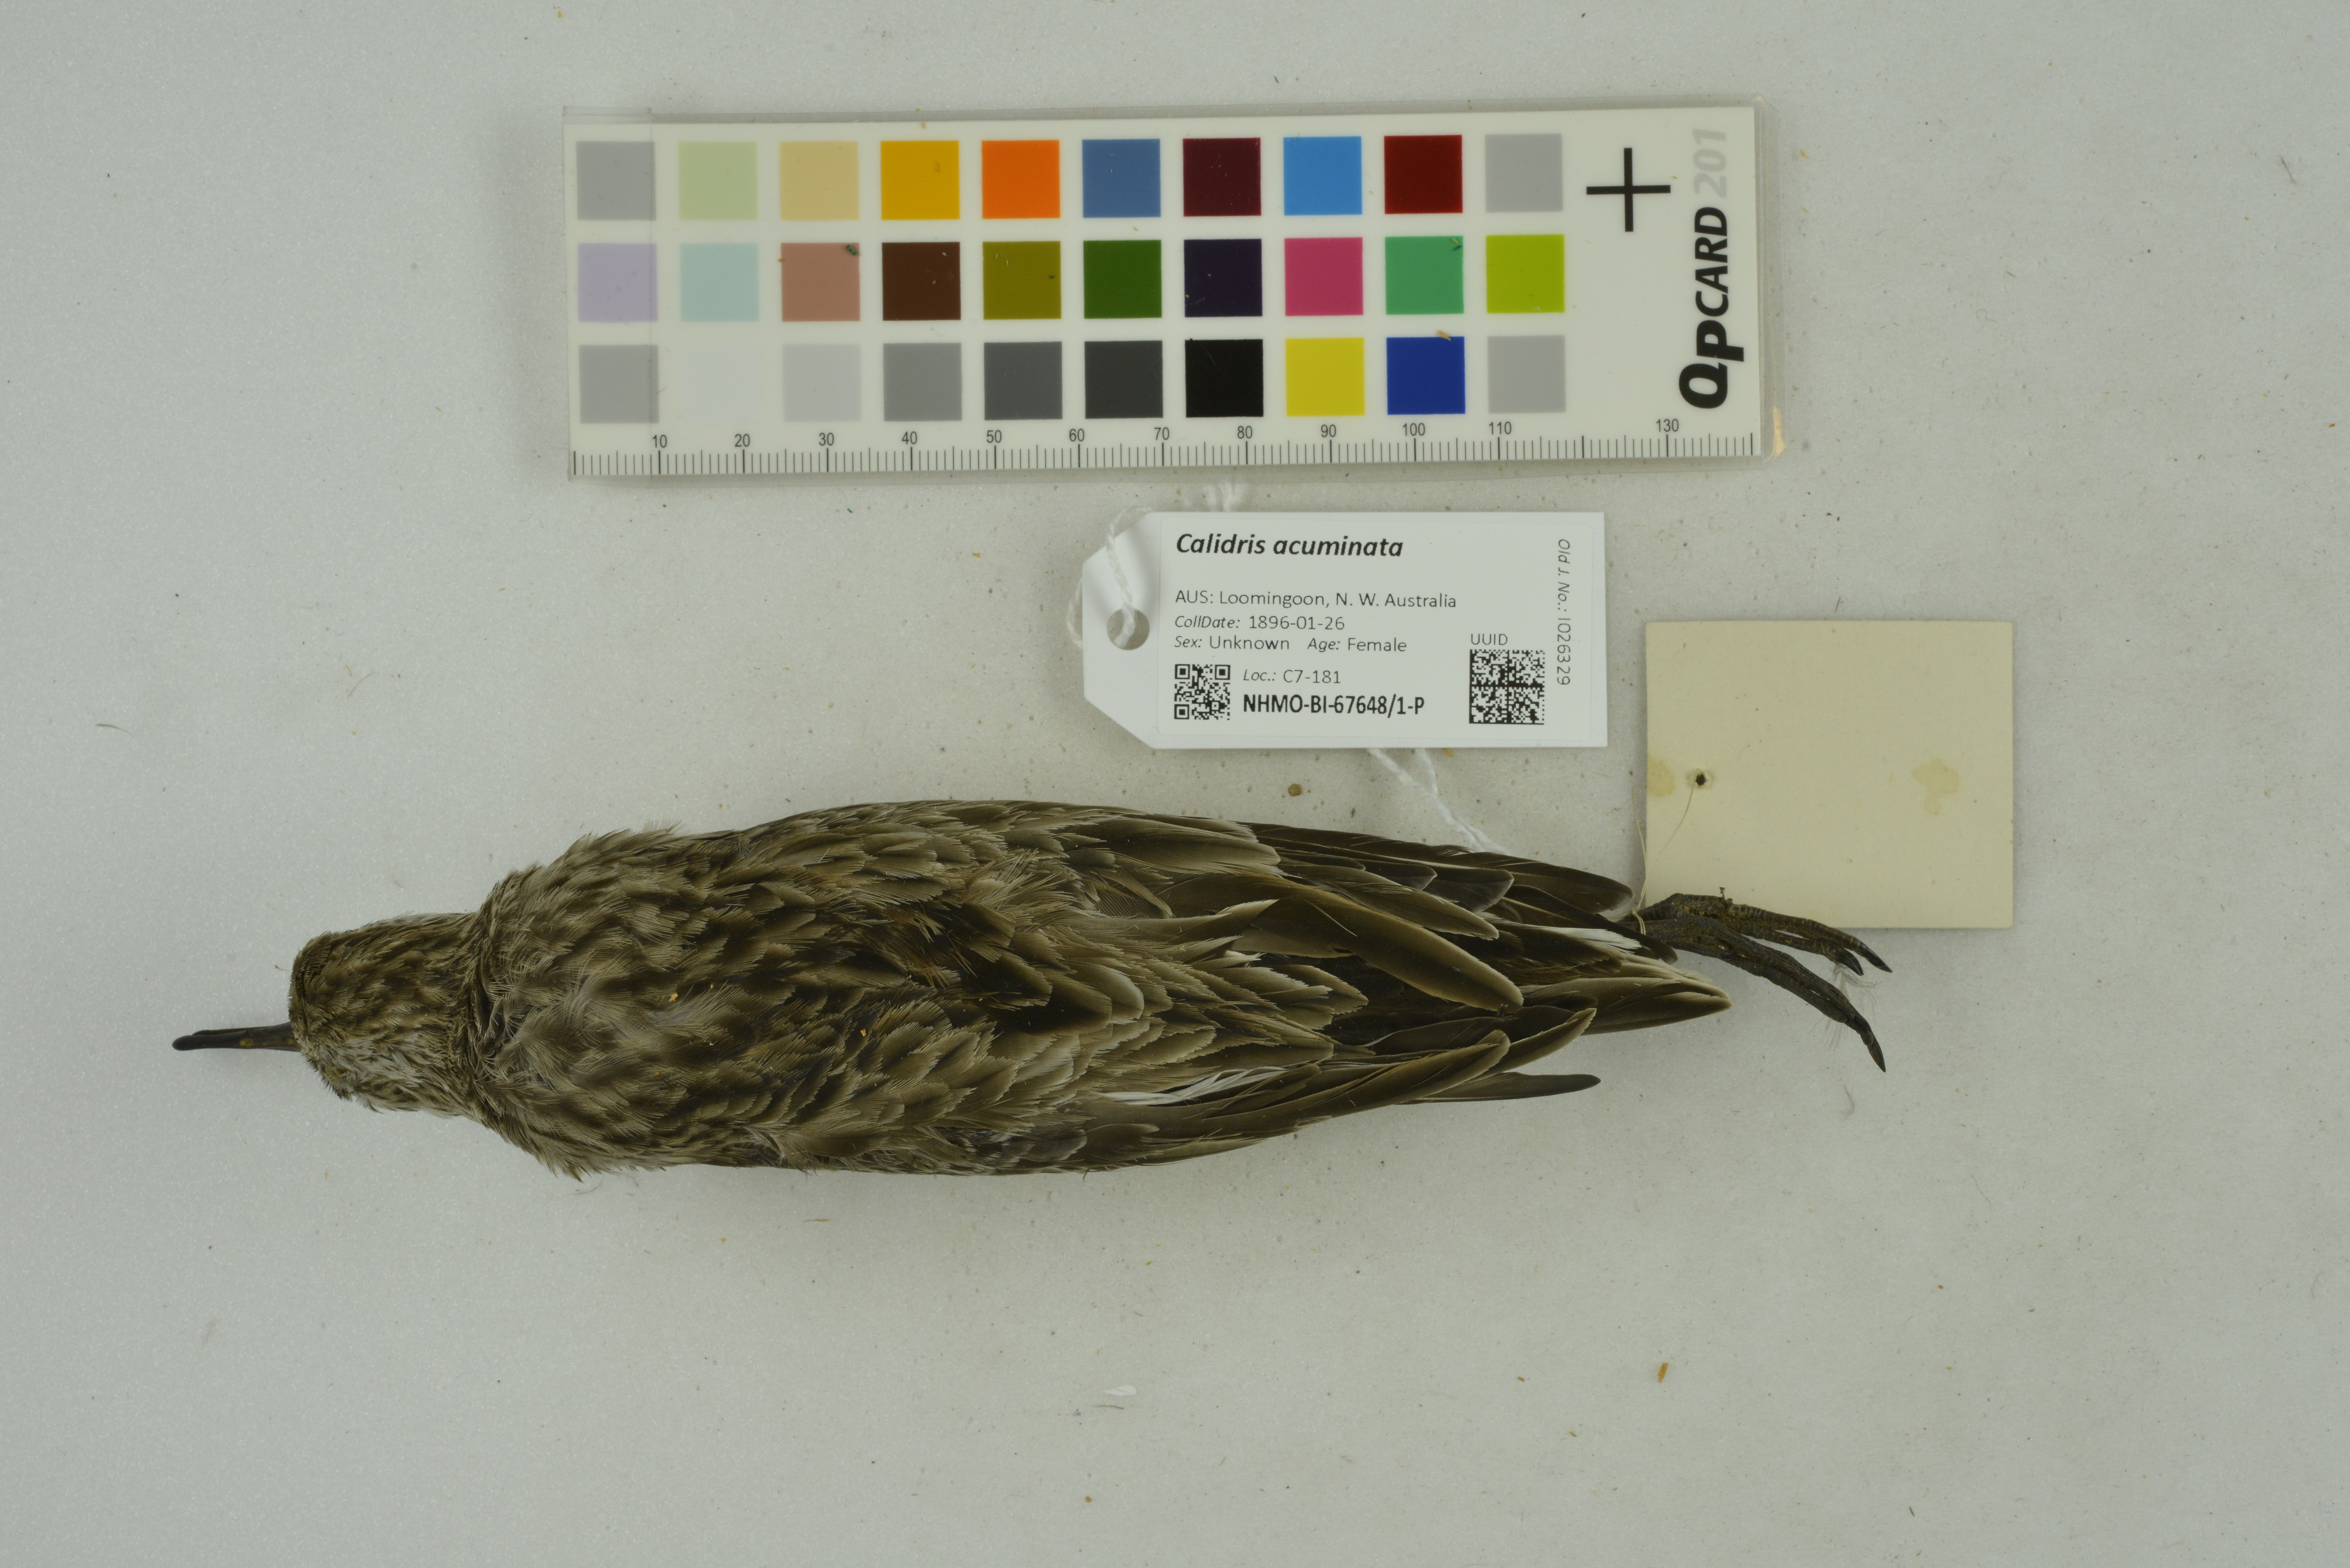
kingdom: Animalia
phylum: Chordata
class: Aves
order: Charadriiformes
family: Scolopacidae
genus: Calidris
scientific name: Calidris acuminata
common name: Sharp-tailed sandpiper
